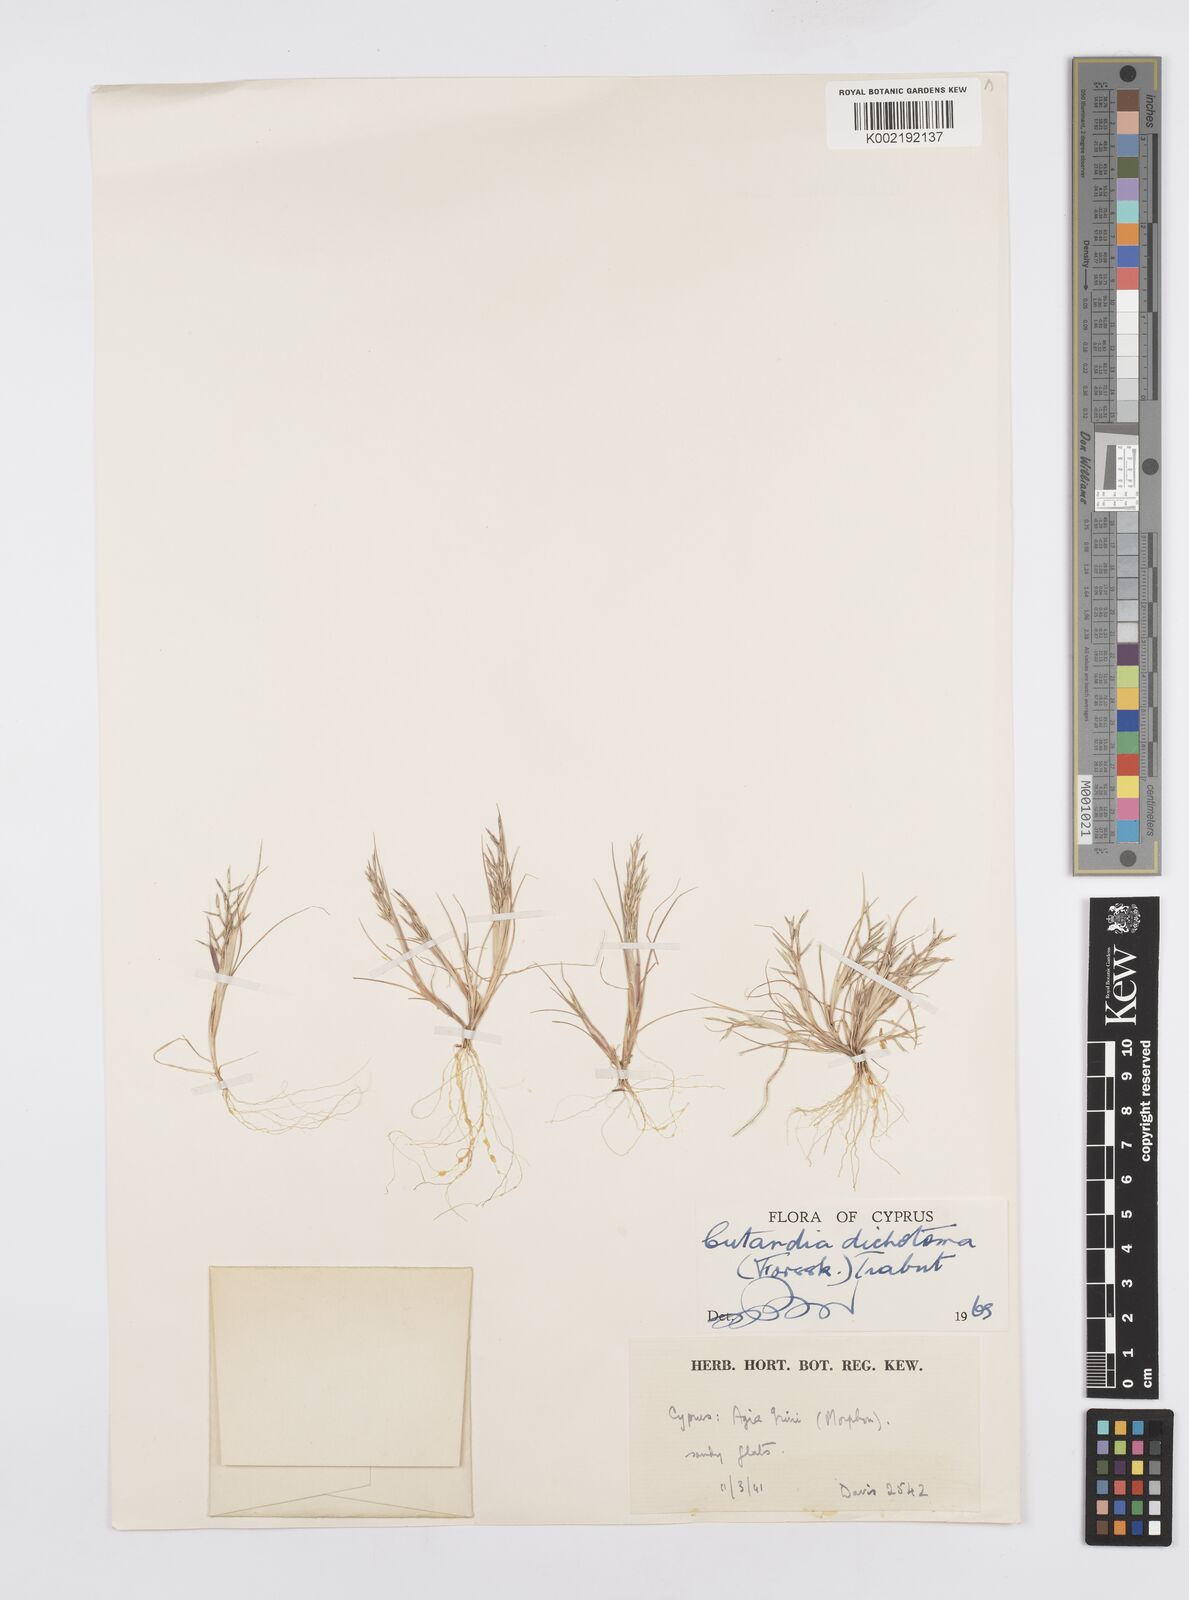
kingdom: Plantae
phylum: Tracheophyta
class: Liliopsida
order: Poales
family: Poaceae
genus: Cutandia
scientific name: Cutandia dichotoma
